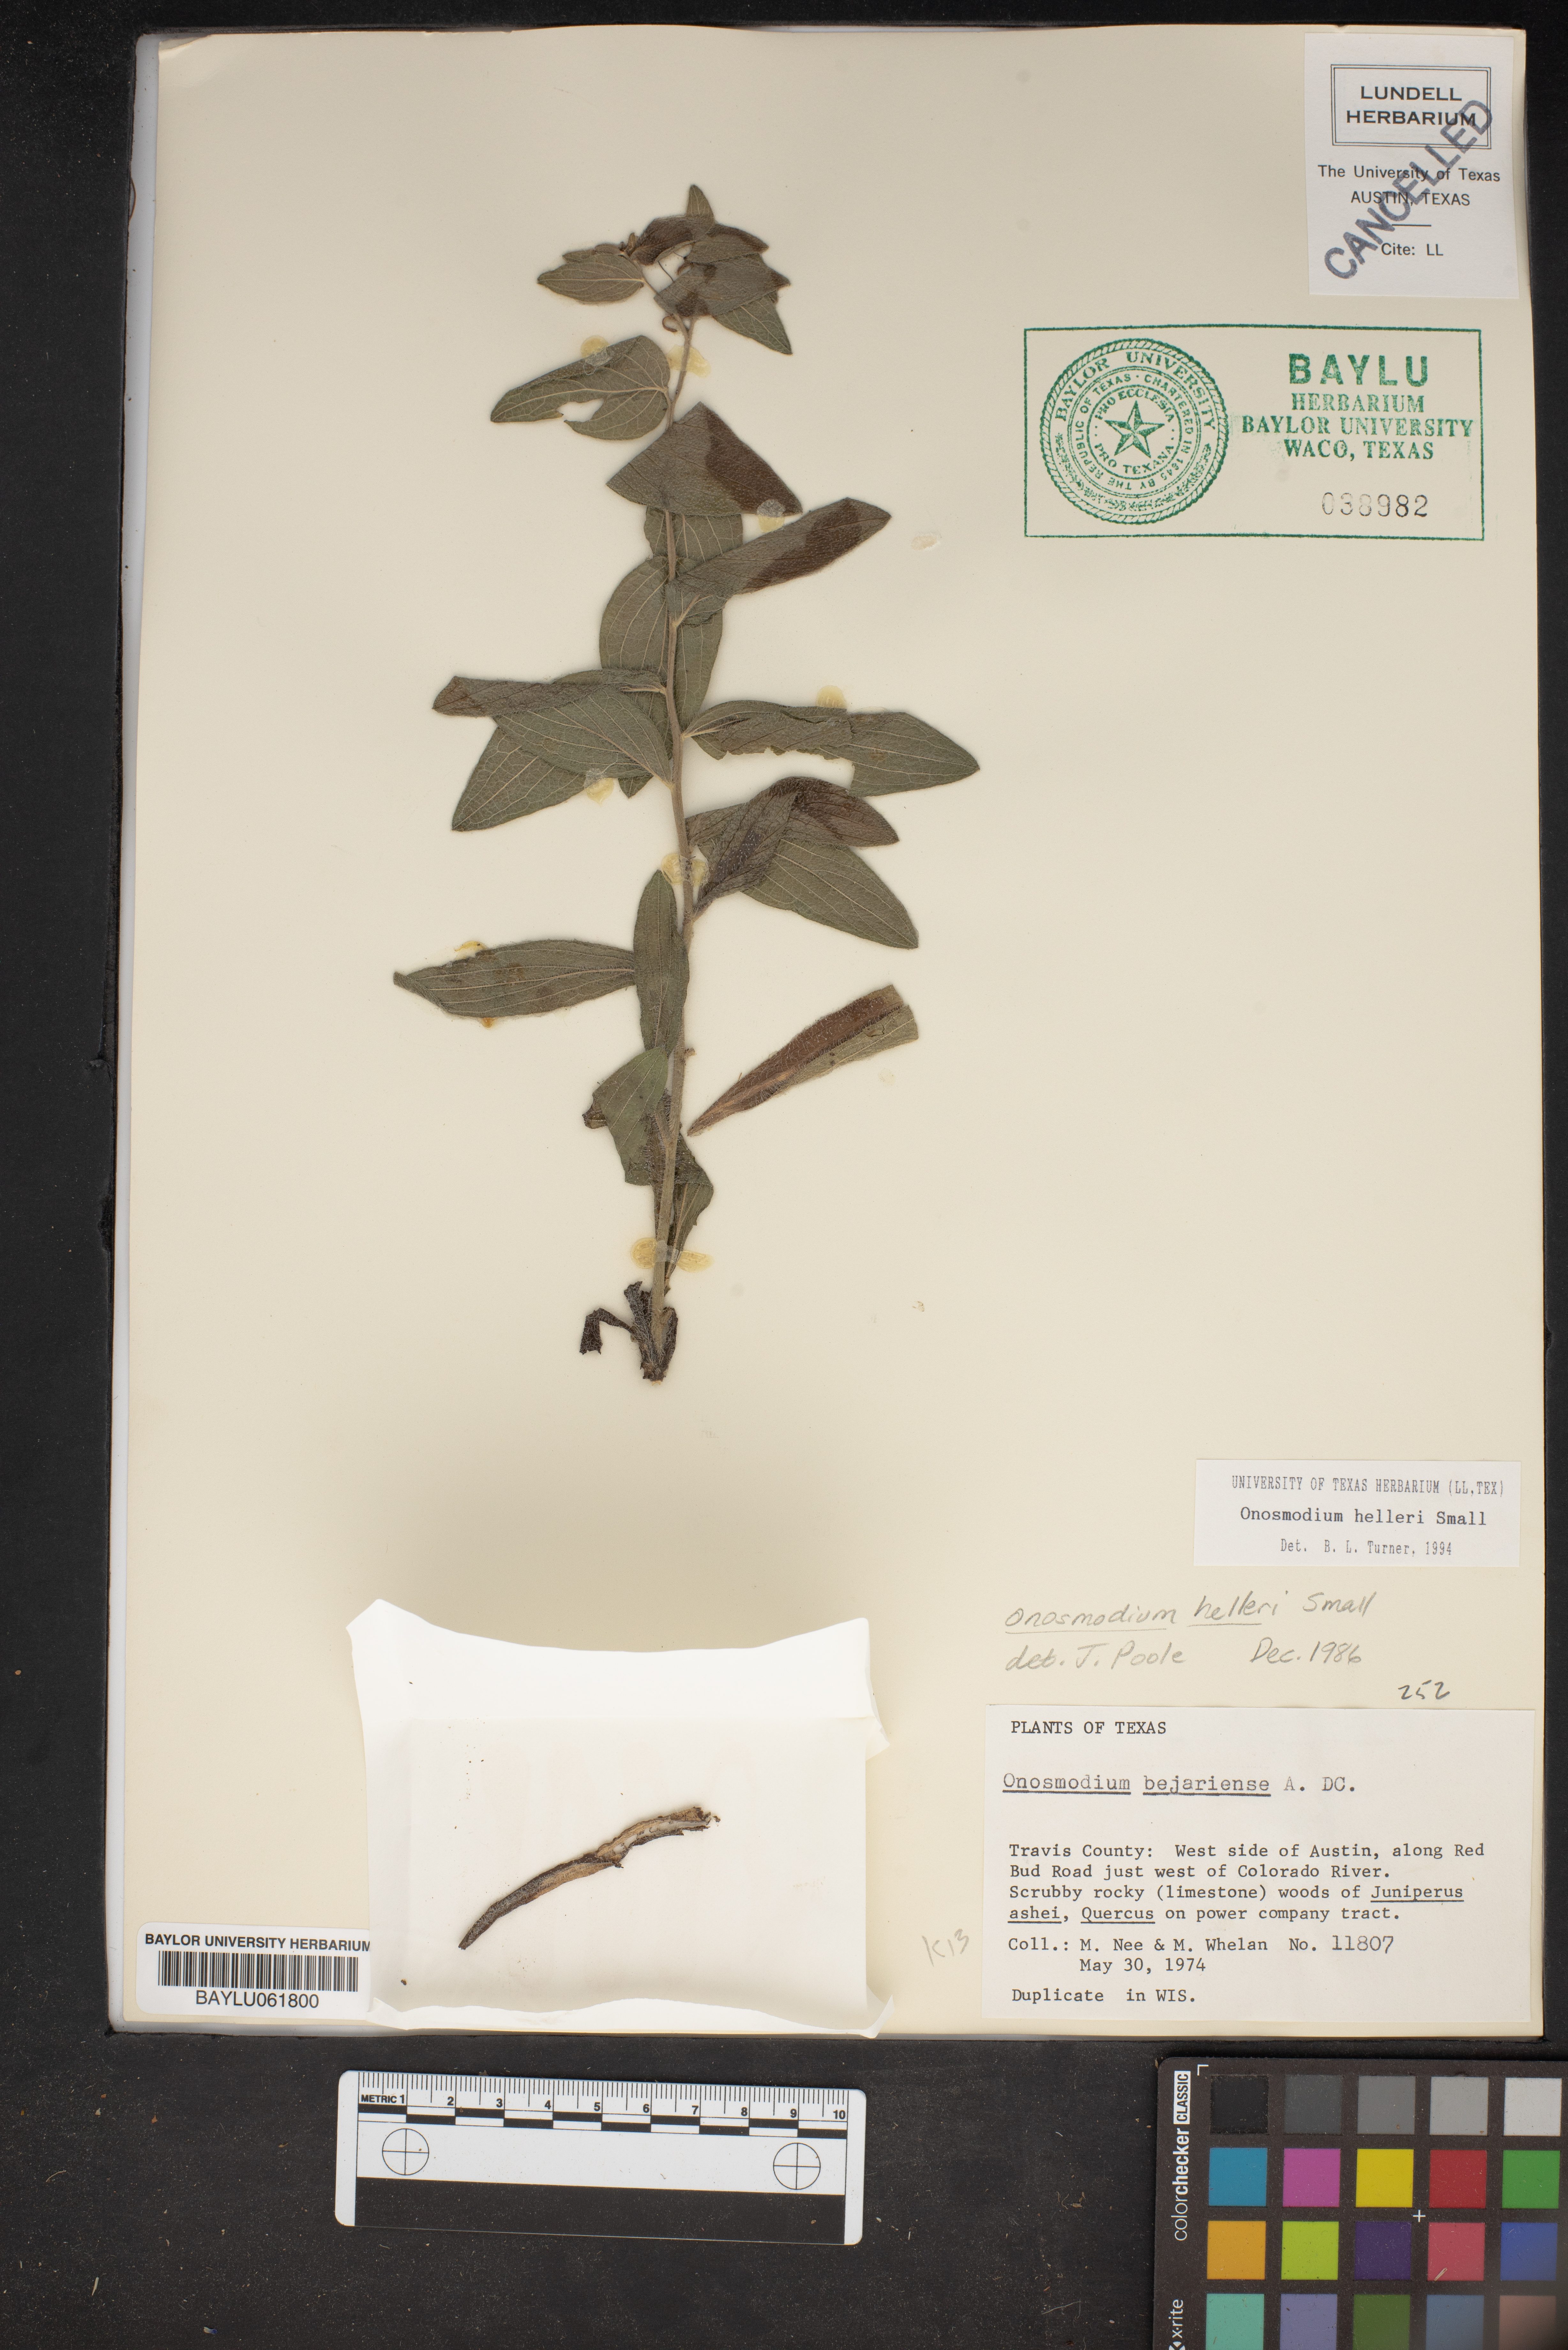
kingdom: Plantae
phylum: Tracheophyta
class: Magnoliopsida
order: Boraginales
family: Boraginaceae
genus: Lithospermum
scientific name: Lithospermum molle
